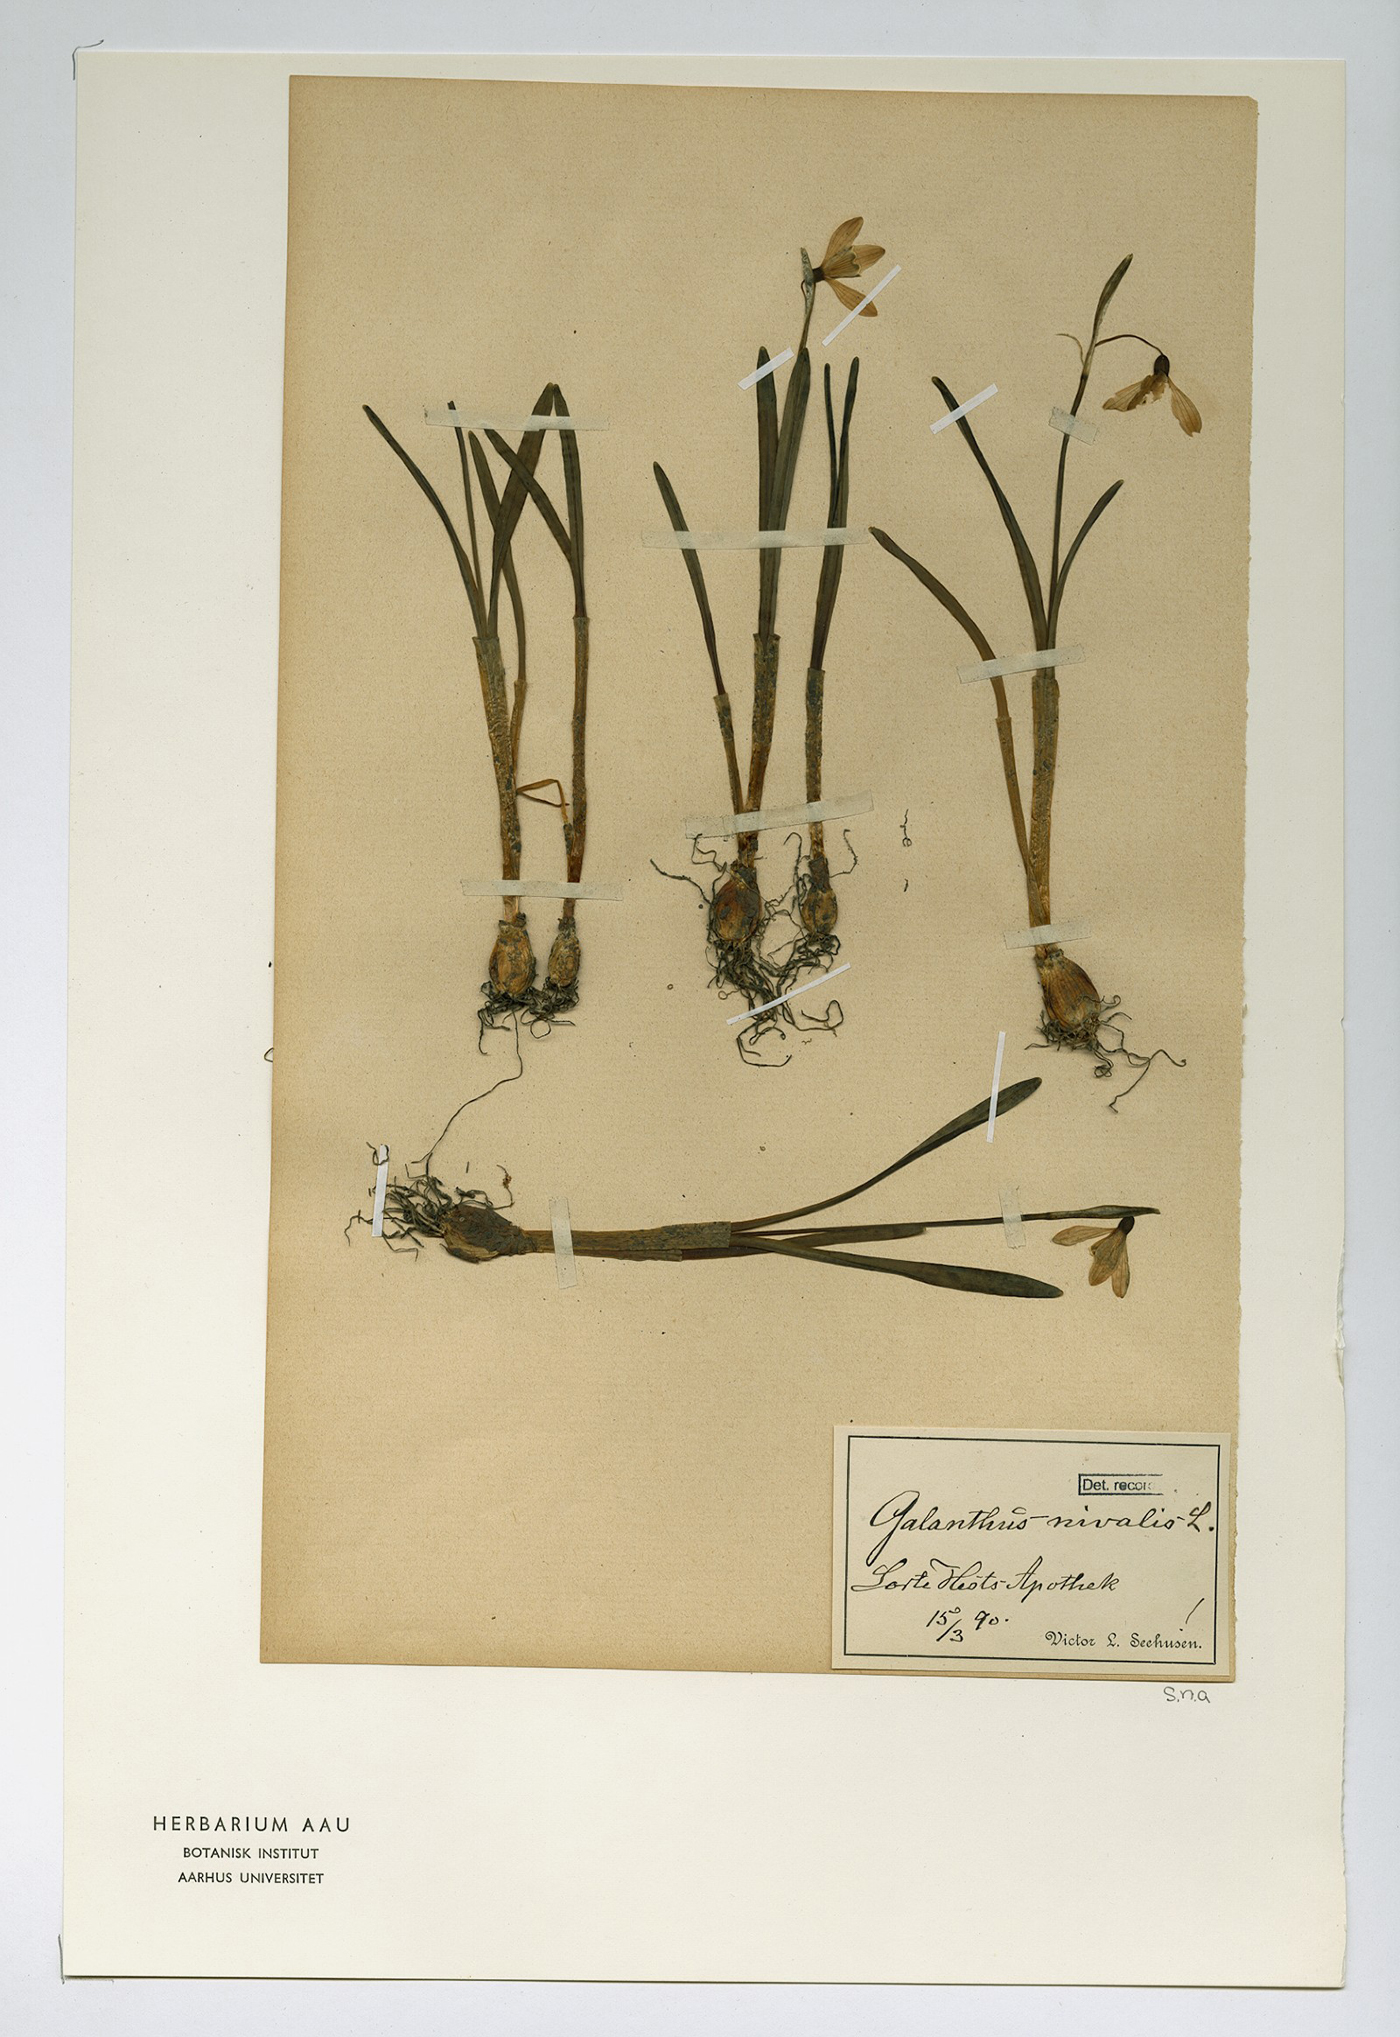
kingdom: Plantae
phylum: Tracheophyta
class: Liliopsida
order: Asparagales
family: Amaryllidaceae
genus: Galanthus
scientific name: Galanthus nivalis
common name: Snowdrop
